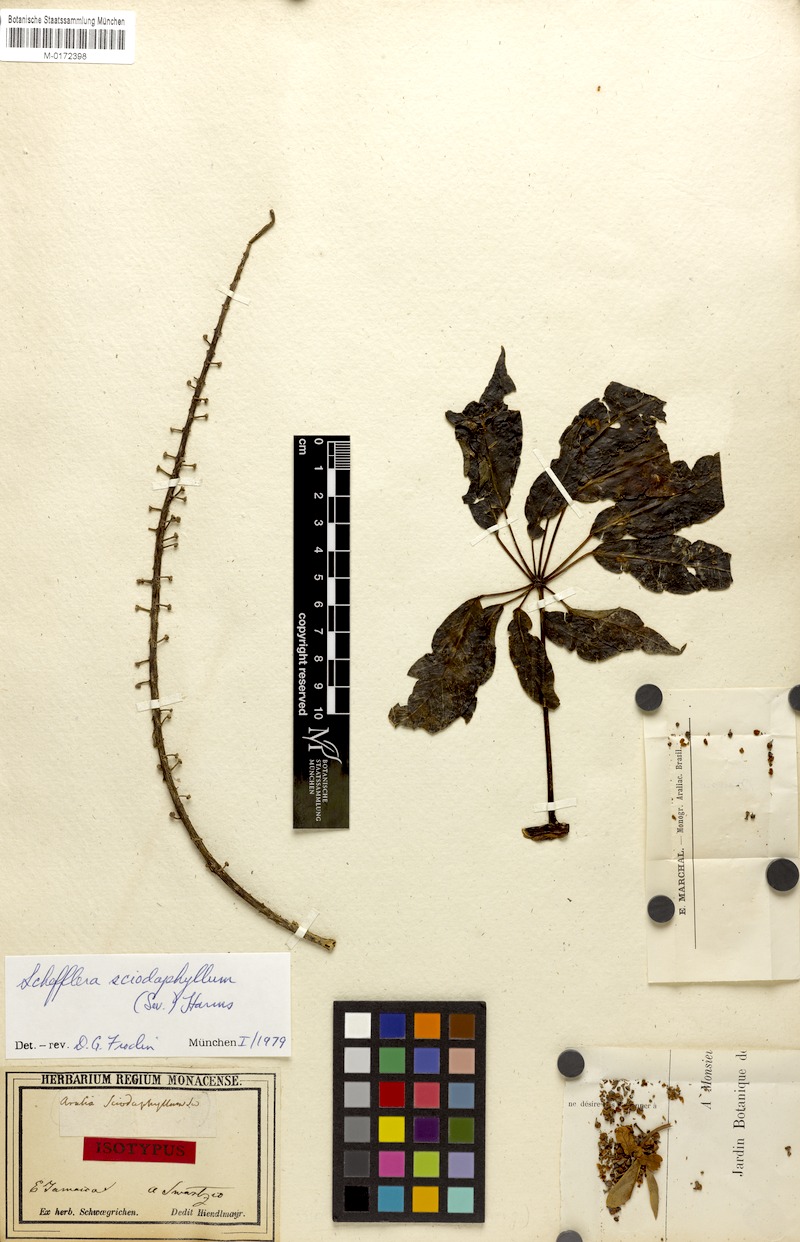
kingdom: Plantae
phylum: Tracheophyta
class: Magnoliopsida
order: Apiales
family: Araliaceae
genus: Sciodaphyllum
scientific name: Sciodaphyllum brownei
